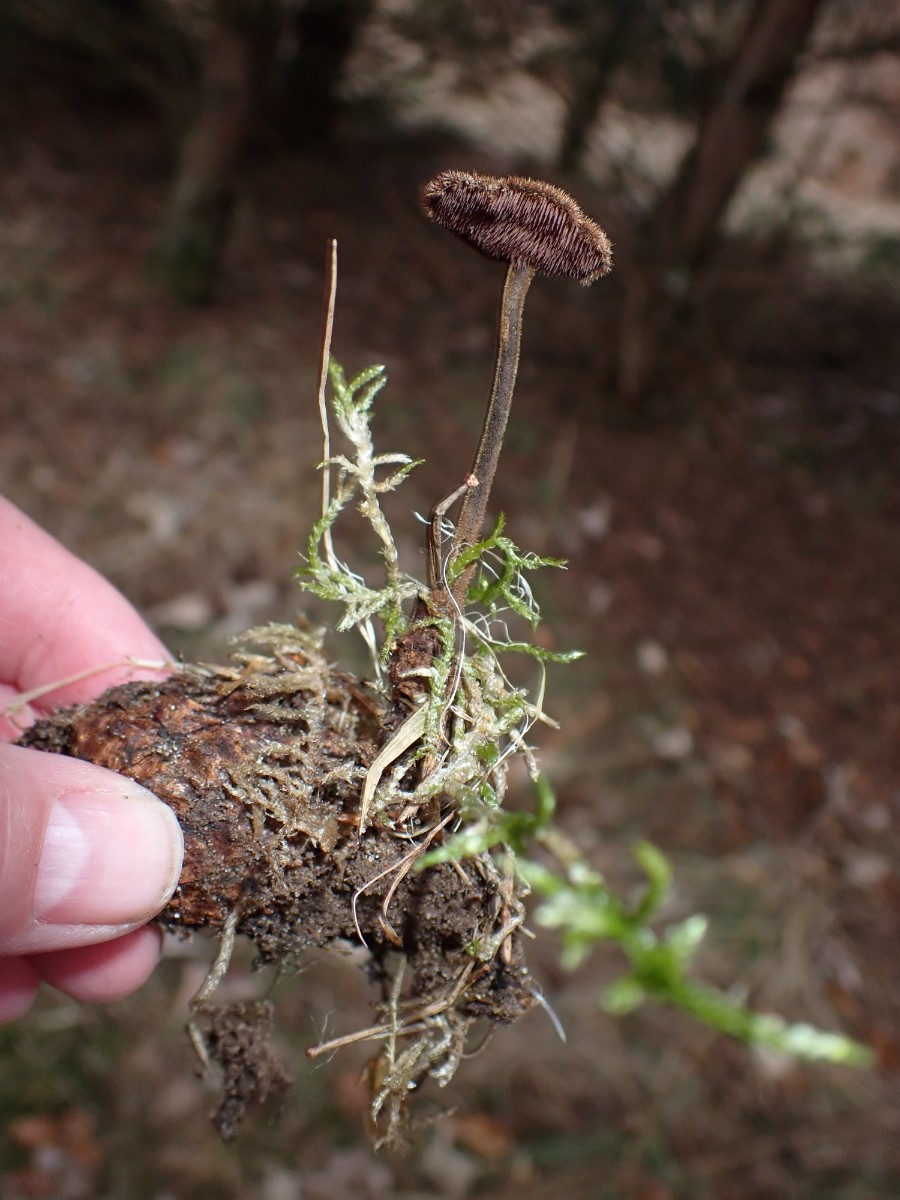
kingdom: Fungi
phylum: Basidiomycota
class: Agaricomycetes
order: Russulales
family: Auriscalpiaceae
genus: Auriscalpium
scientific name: Auriscalpium vulgare
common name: koglepigsvamp
